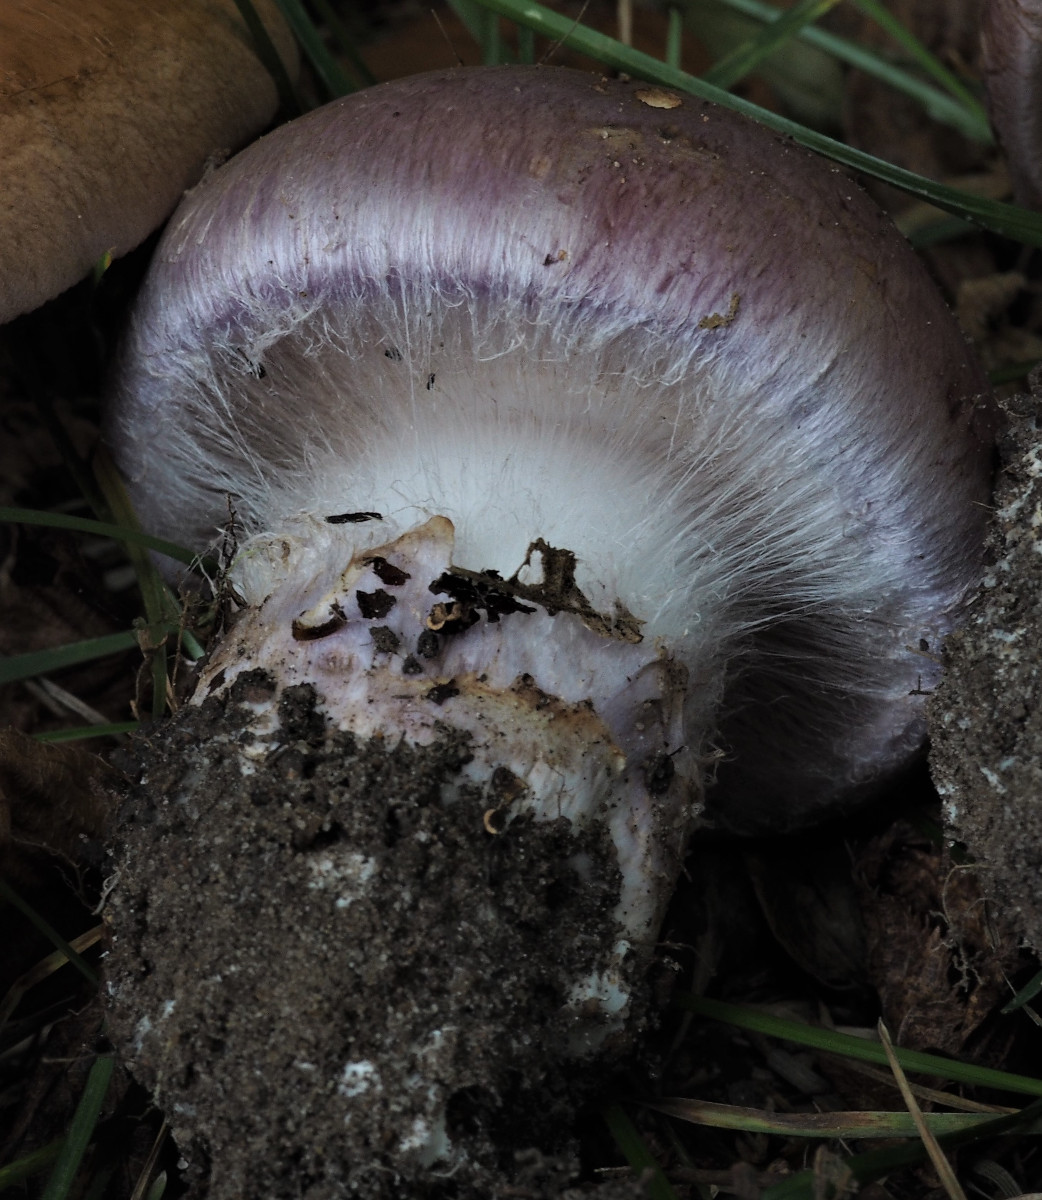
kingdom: Fungi
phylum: Basidiomycota
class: Agaricomycetes
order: Agaricales
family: Cortinariaceae
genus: Phlegmacium
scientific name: Phlegmacium balteatocumatile
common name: violettrådet slørhat
